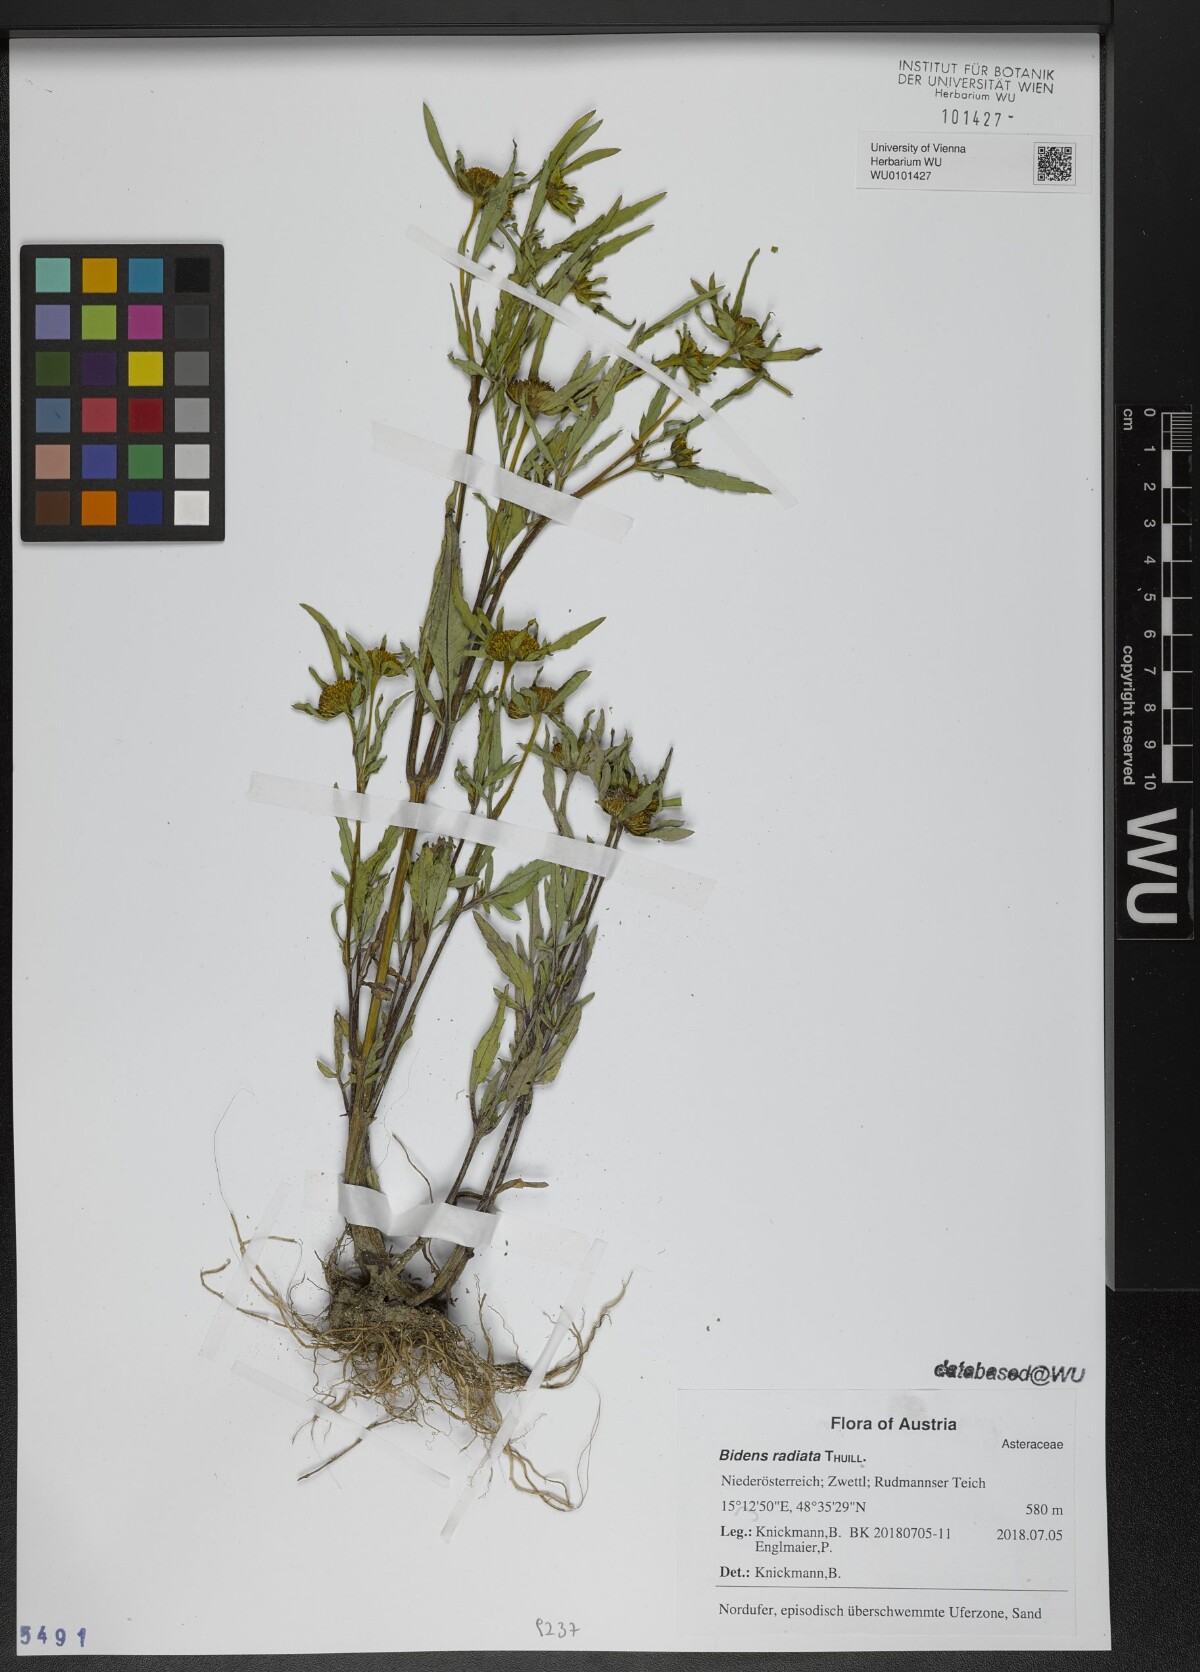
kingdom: Plantae
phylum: Tracheophyta
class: Magnoliopsida
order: Asterales
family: Asteraceae
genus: Bidens
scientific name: Bidens radiata
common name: Radiating bur-marigold
